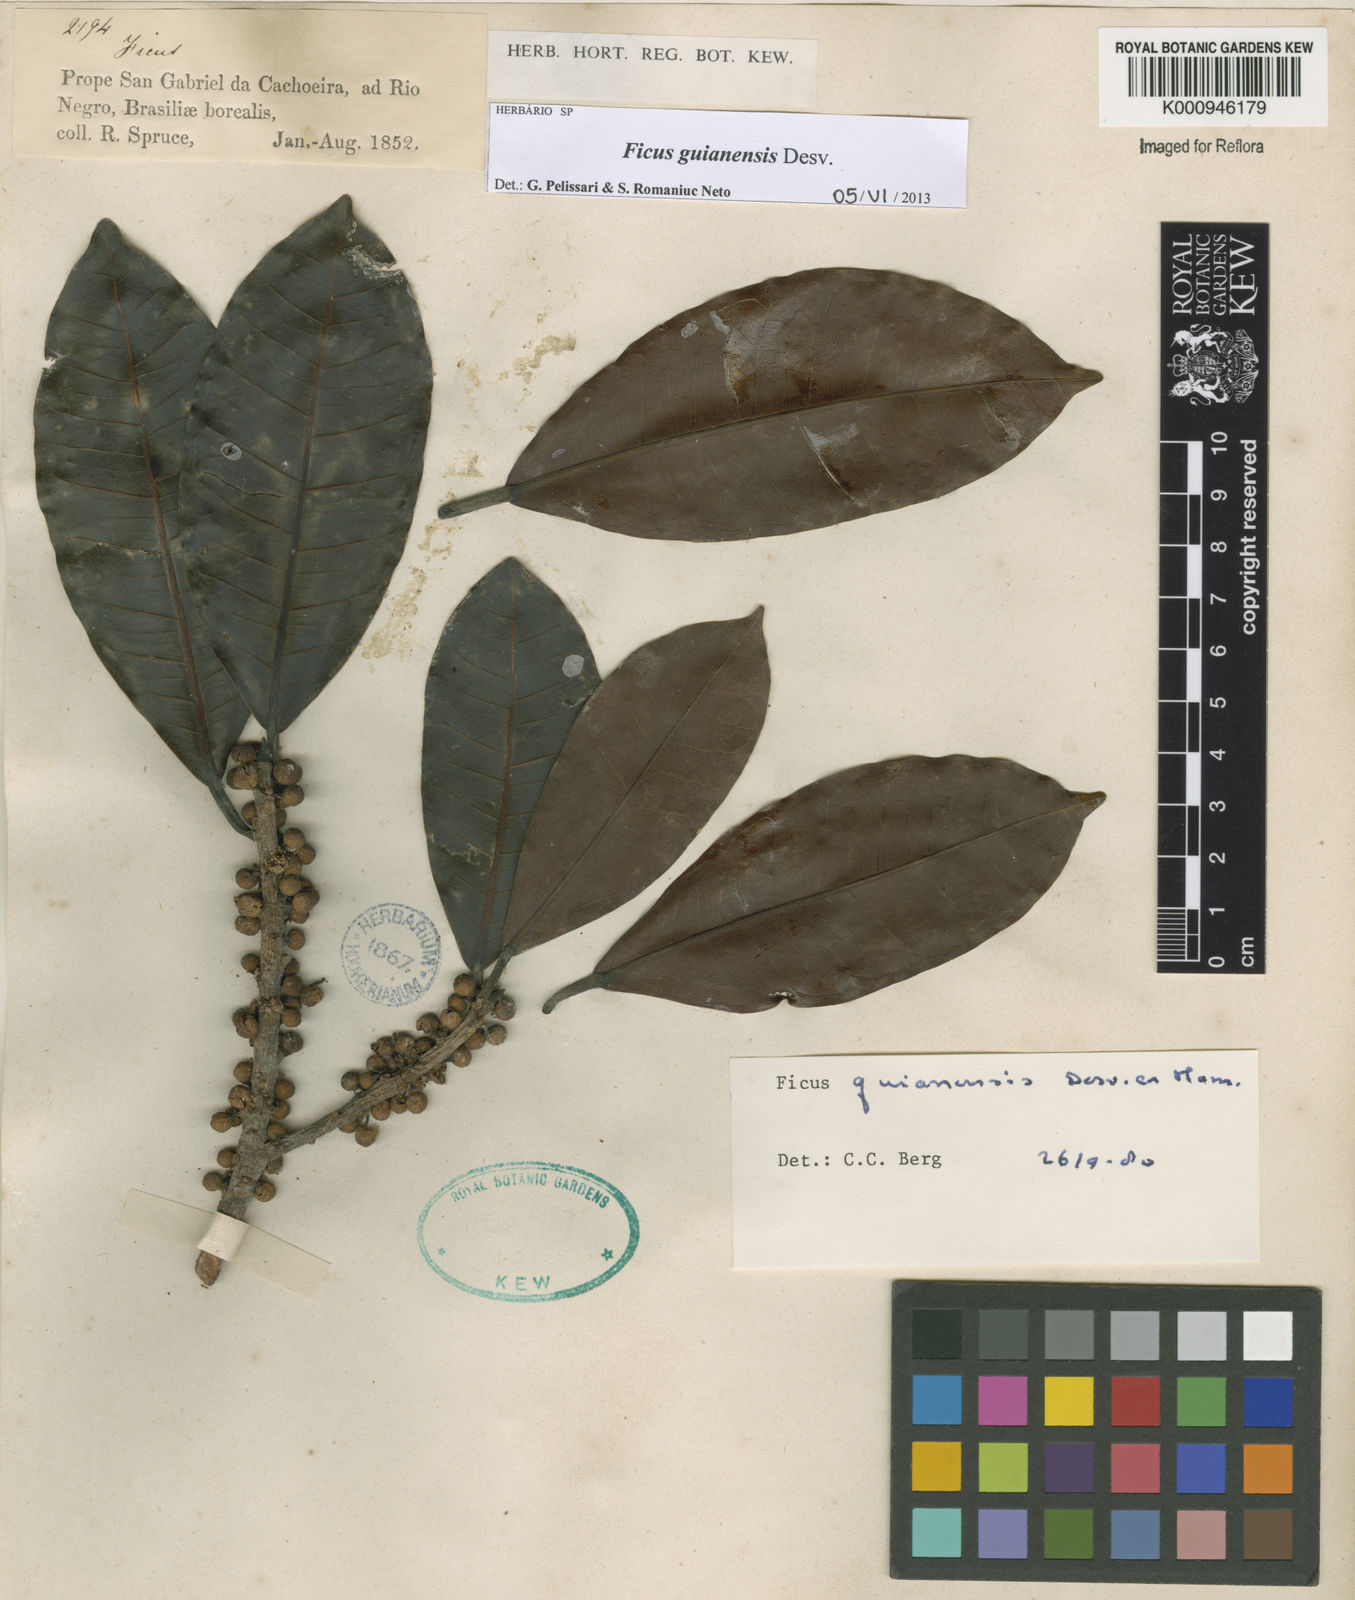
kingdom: Plantae
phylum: Tracheophyta
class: Magnoliopsida
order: Rosales
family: Moraceae
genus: Ficus
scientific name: Ficus americana
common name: Jamaican cherry fig
